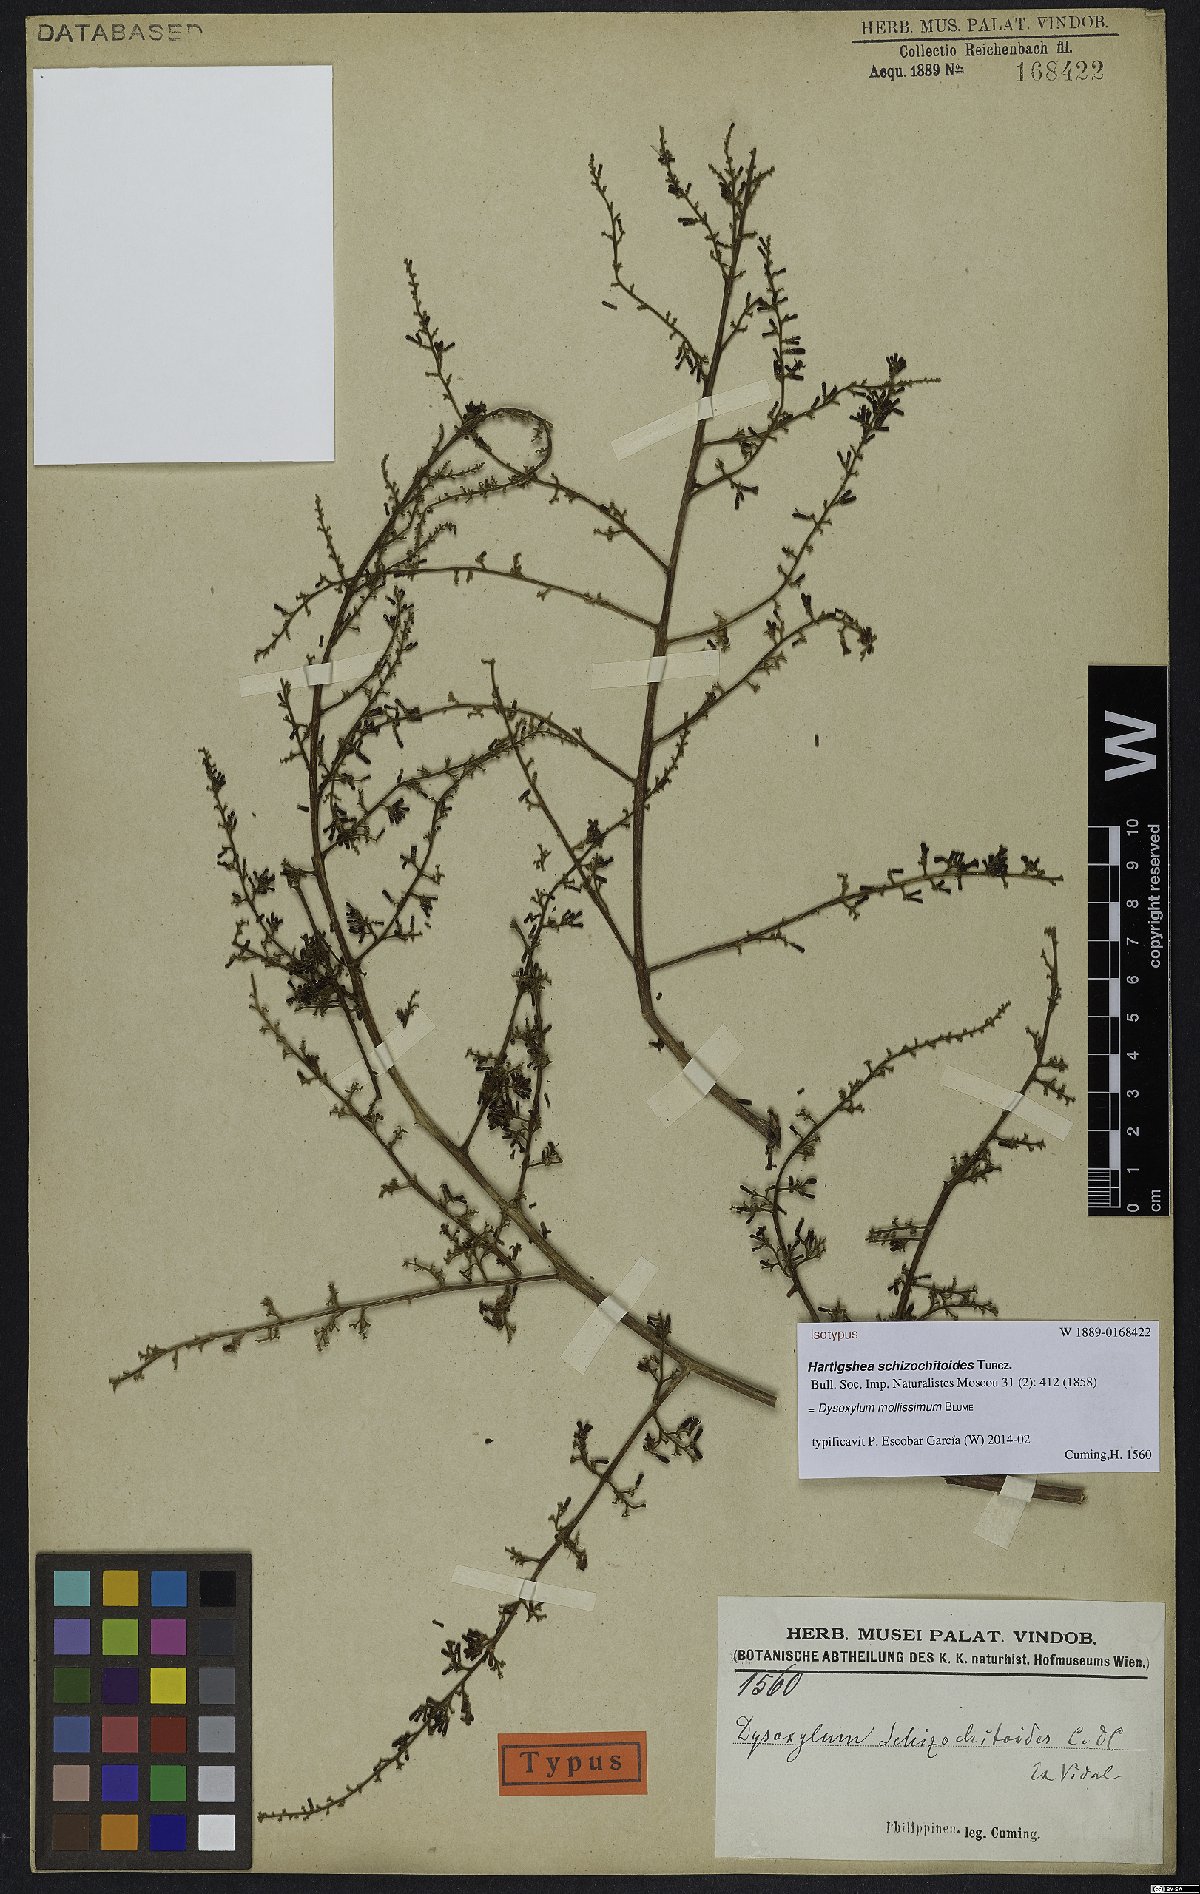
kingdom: Plantae
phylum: Tracheophyta
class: Magnoliopsida
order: Sapindales
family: Meliaceae
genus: Dysoxylum
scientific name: Dysoxylum mollissimum
